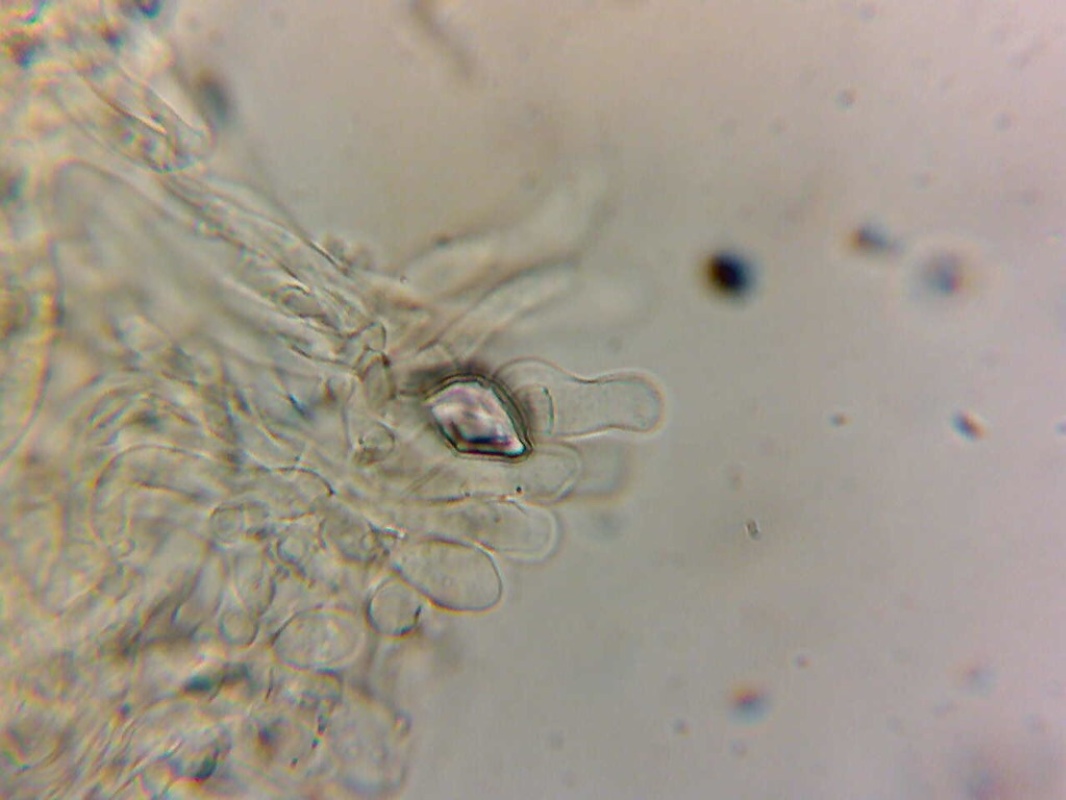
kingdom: Fungi
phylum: Basidiomycota
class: Agaricomycetes
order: Agaricales
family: Inocybaceae
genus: Inocybe
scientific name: Inocybe dulcamara
